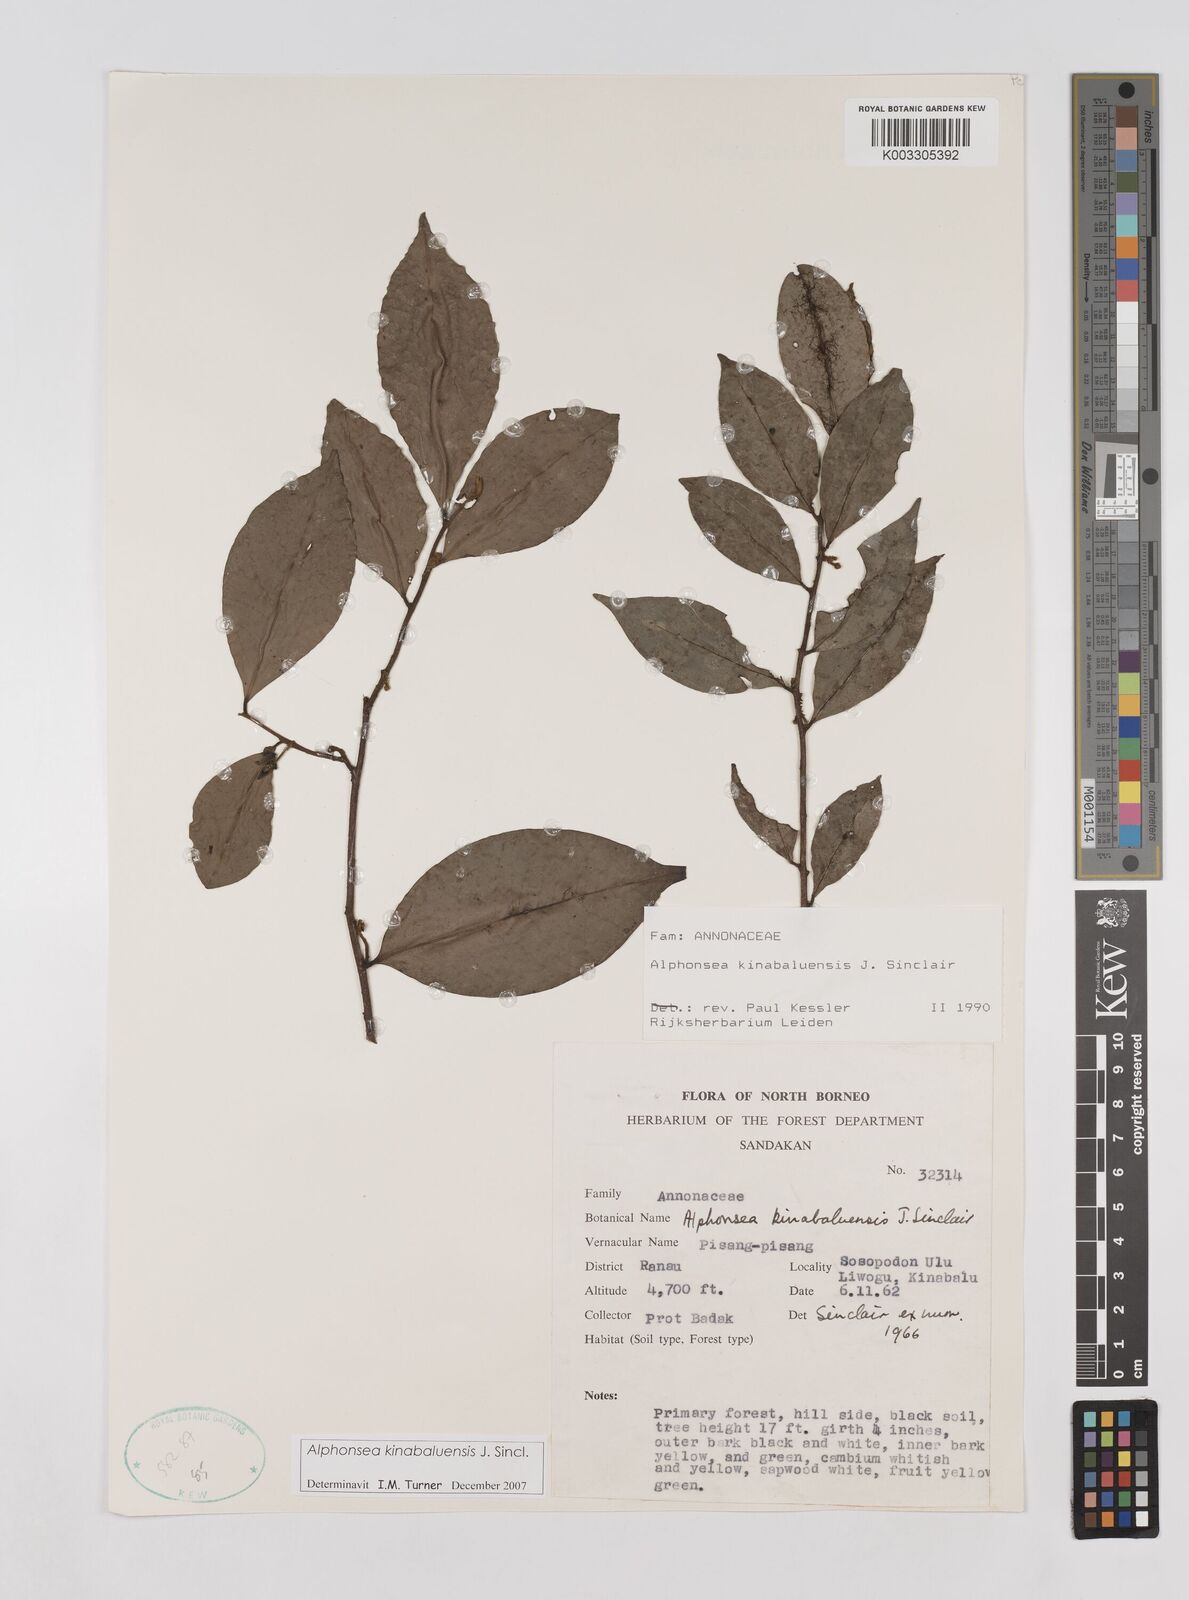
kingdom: Plantae
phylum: Tracheophyta
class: Magnoliopsida
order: Magnoliales
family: Annonaceae
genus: Alphonsea
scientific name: Alphonsea kinabaluensis
